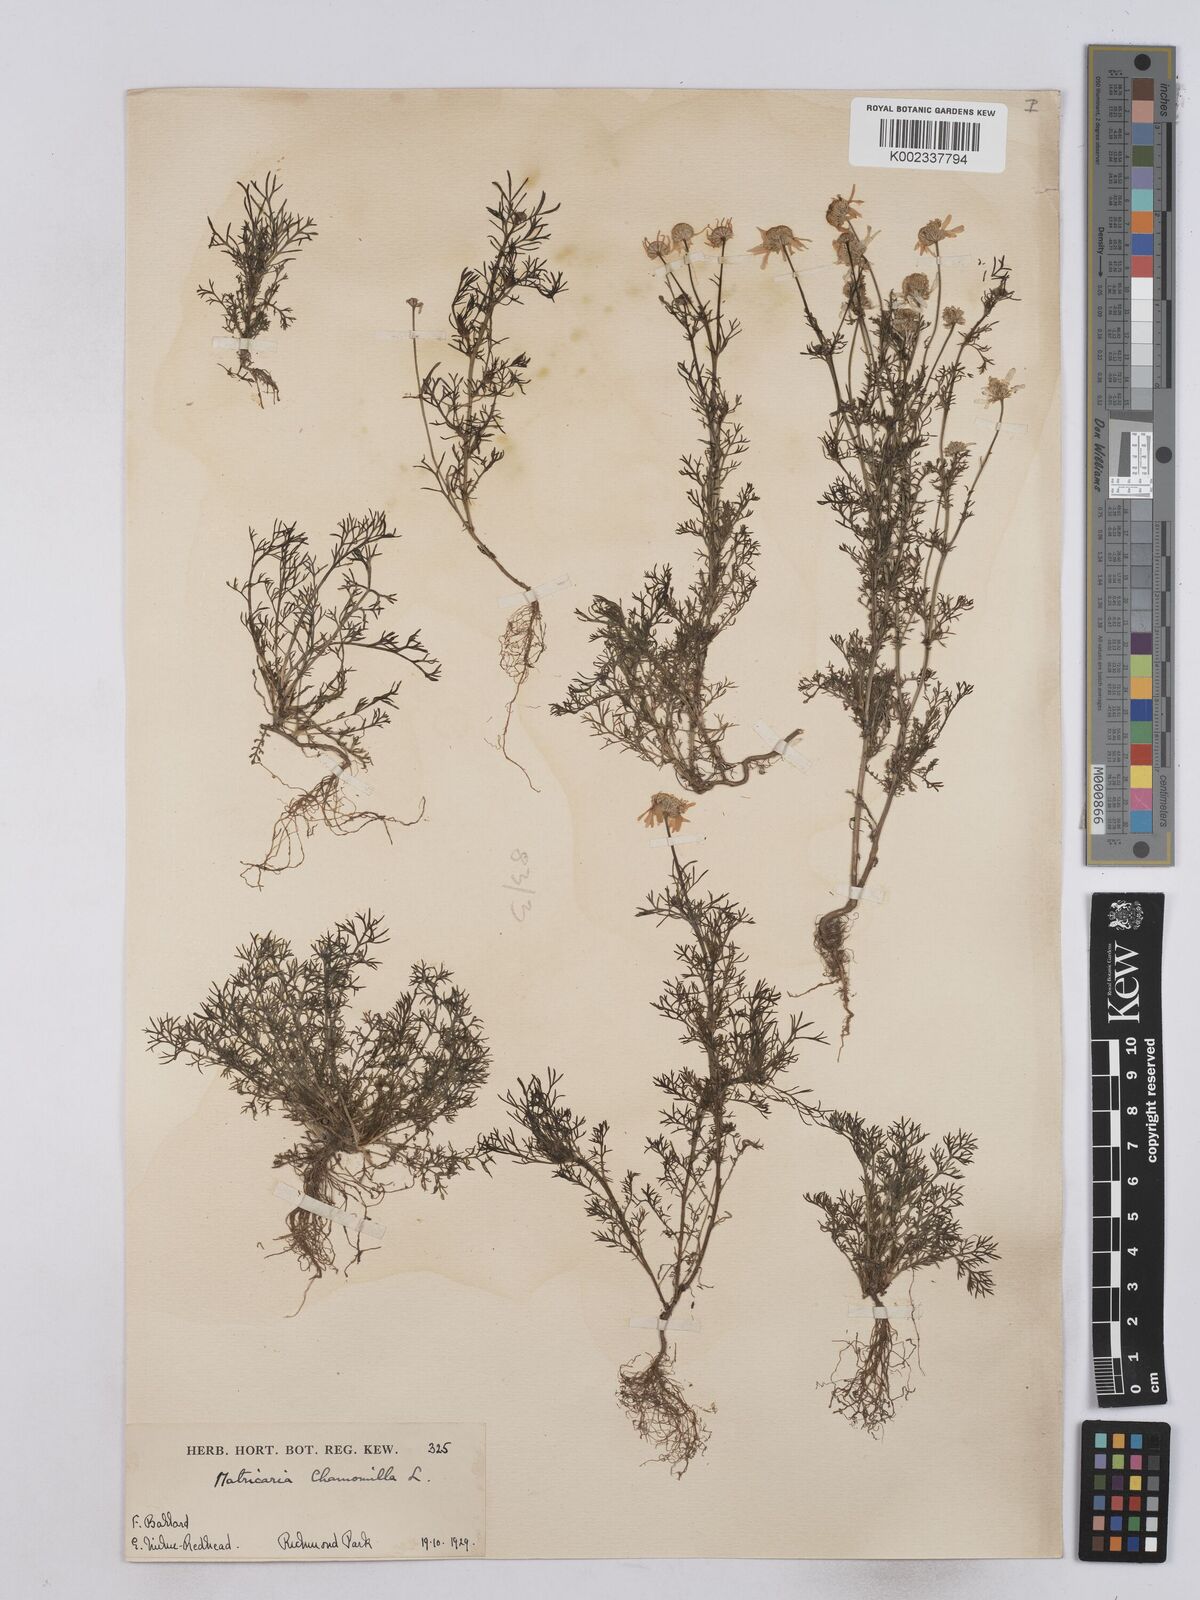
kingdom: Plantae
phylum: Tracheophyta
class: Magnoliopsida
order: Asterales
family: Asteraceae
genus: Matricaria
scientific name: Matricaria chamomilla
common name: Scented mayweed
